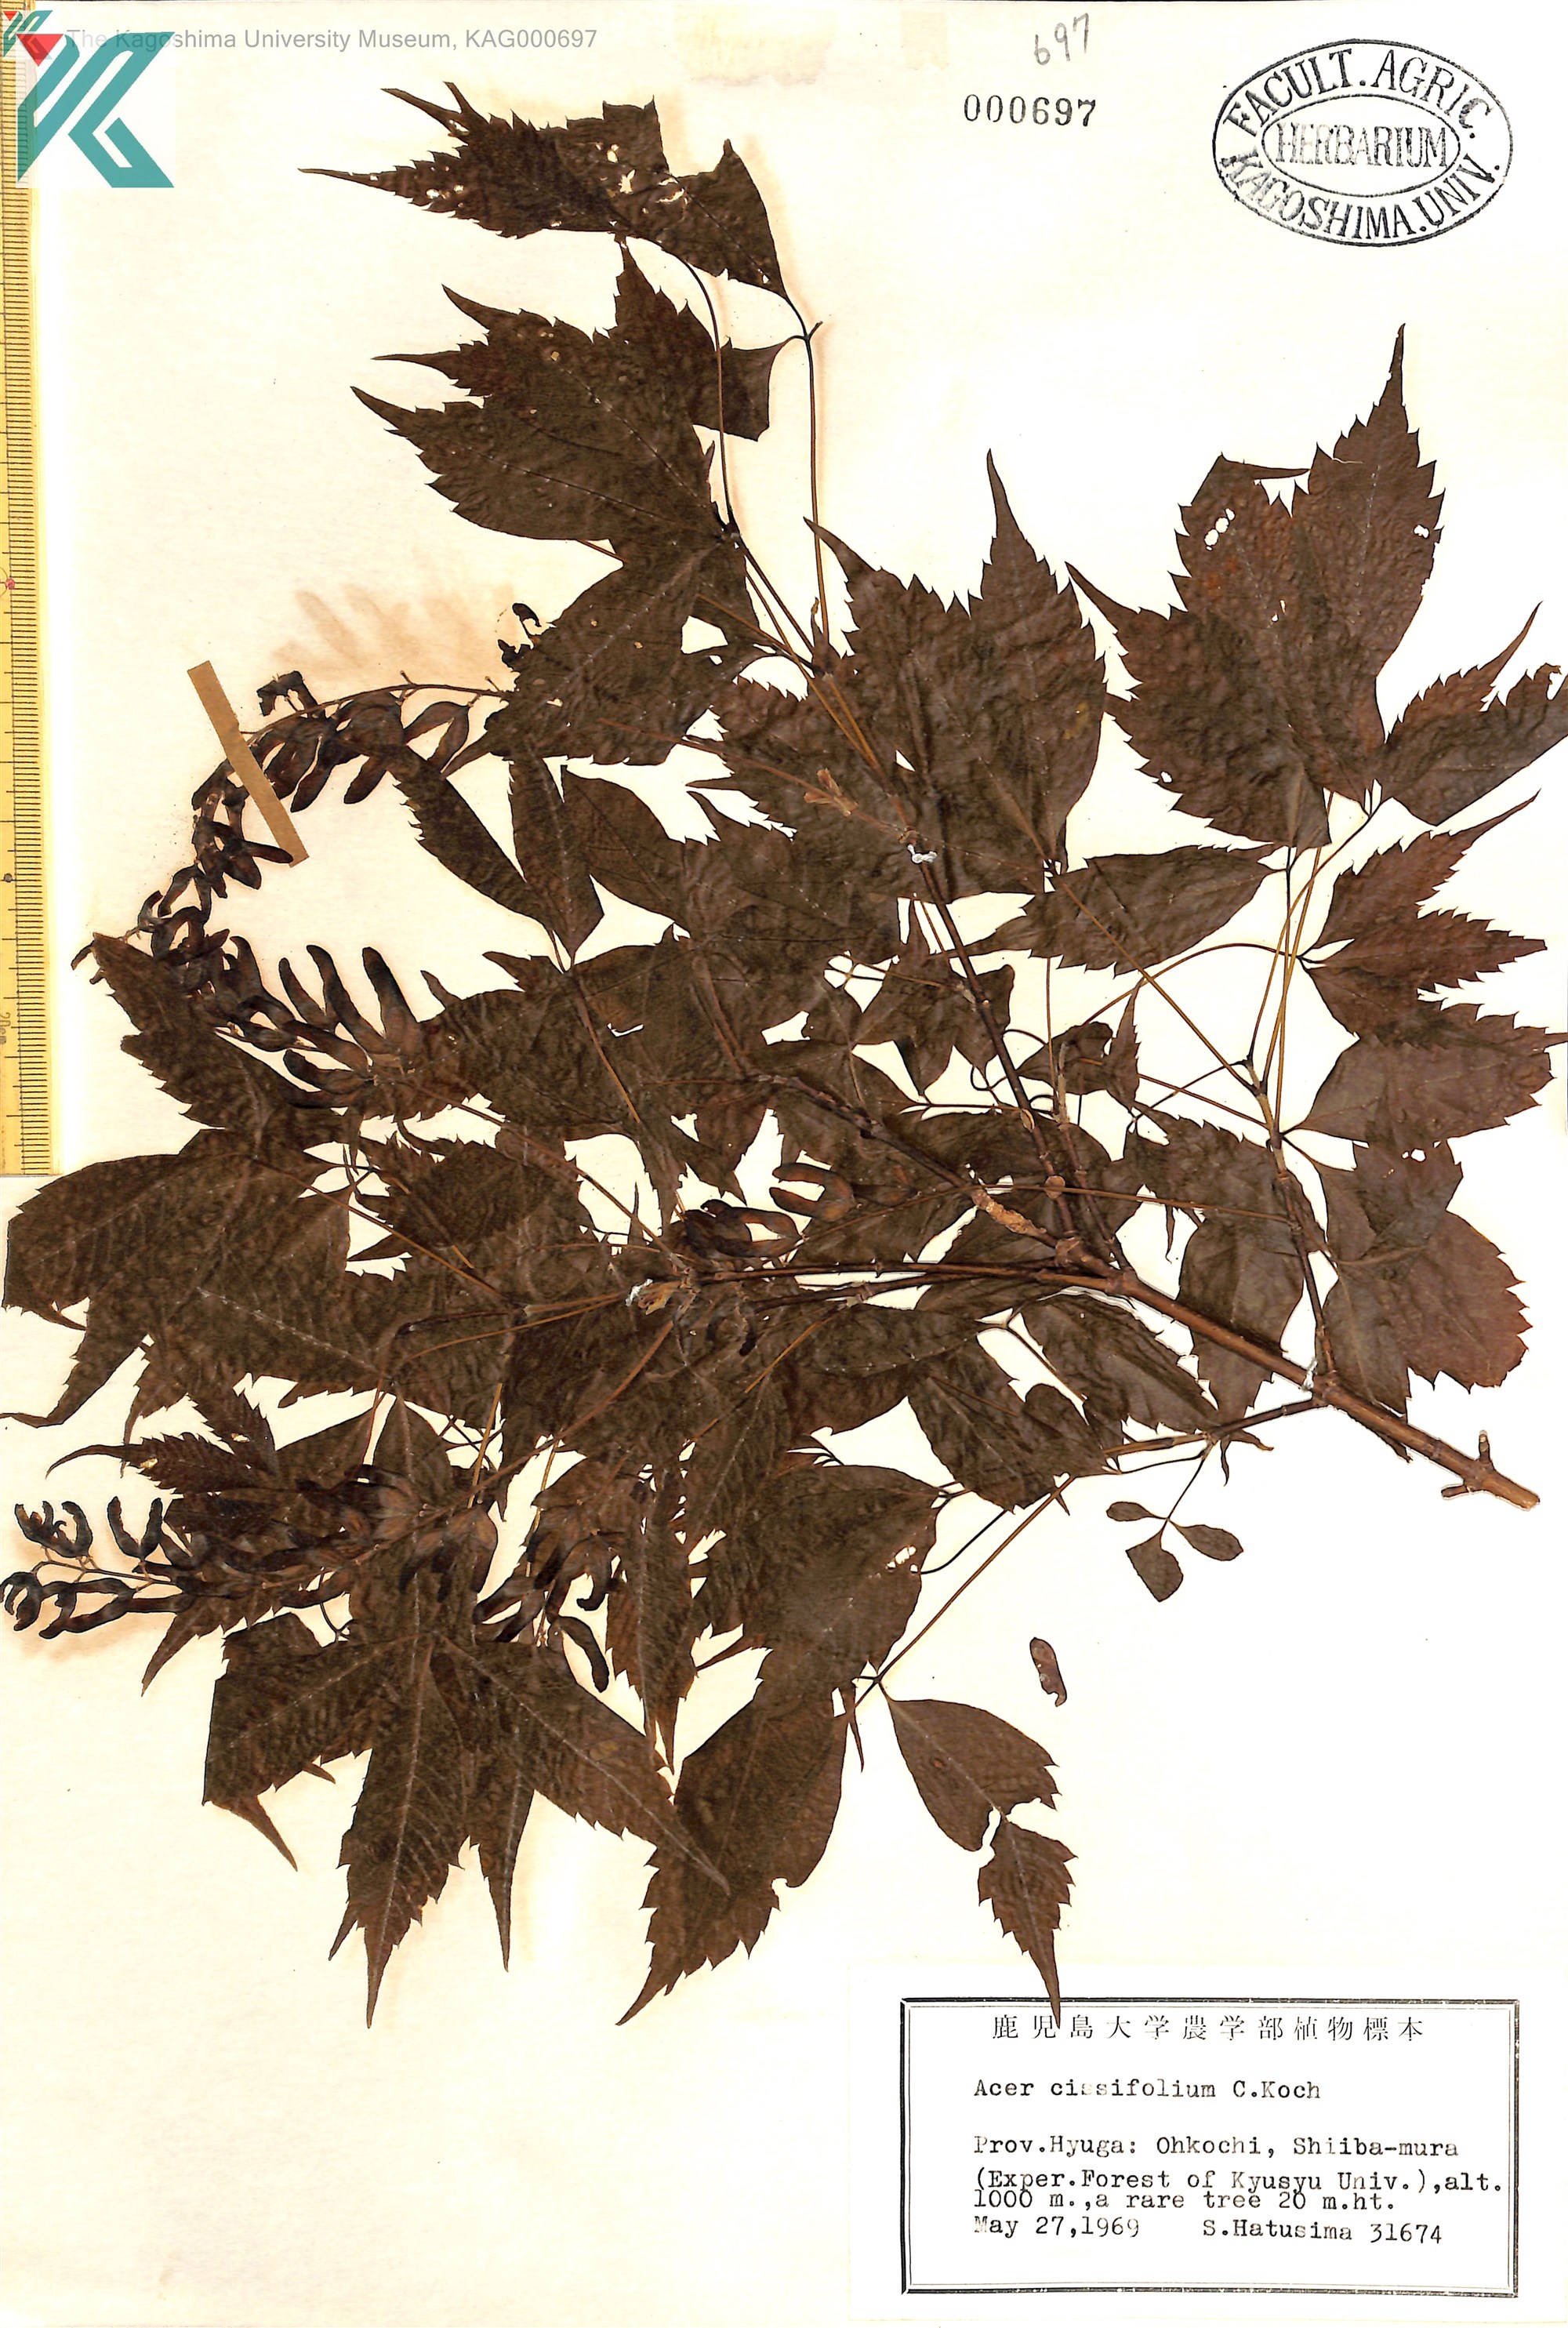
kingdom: Plantae
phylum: Tracheophyta
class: Magnoliopsida
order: Sapindales
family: Sapindaceae
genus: Acer
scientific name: Acer cissifolium
